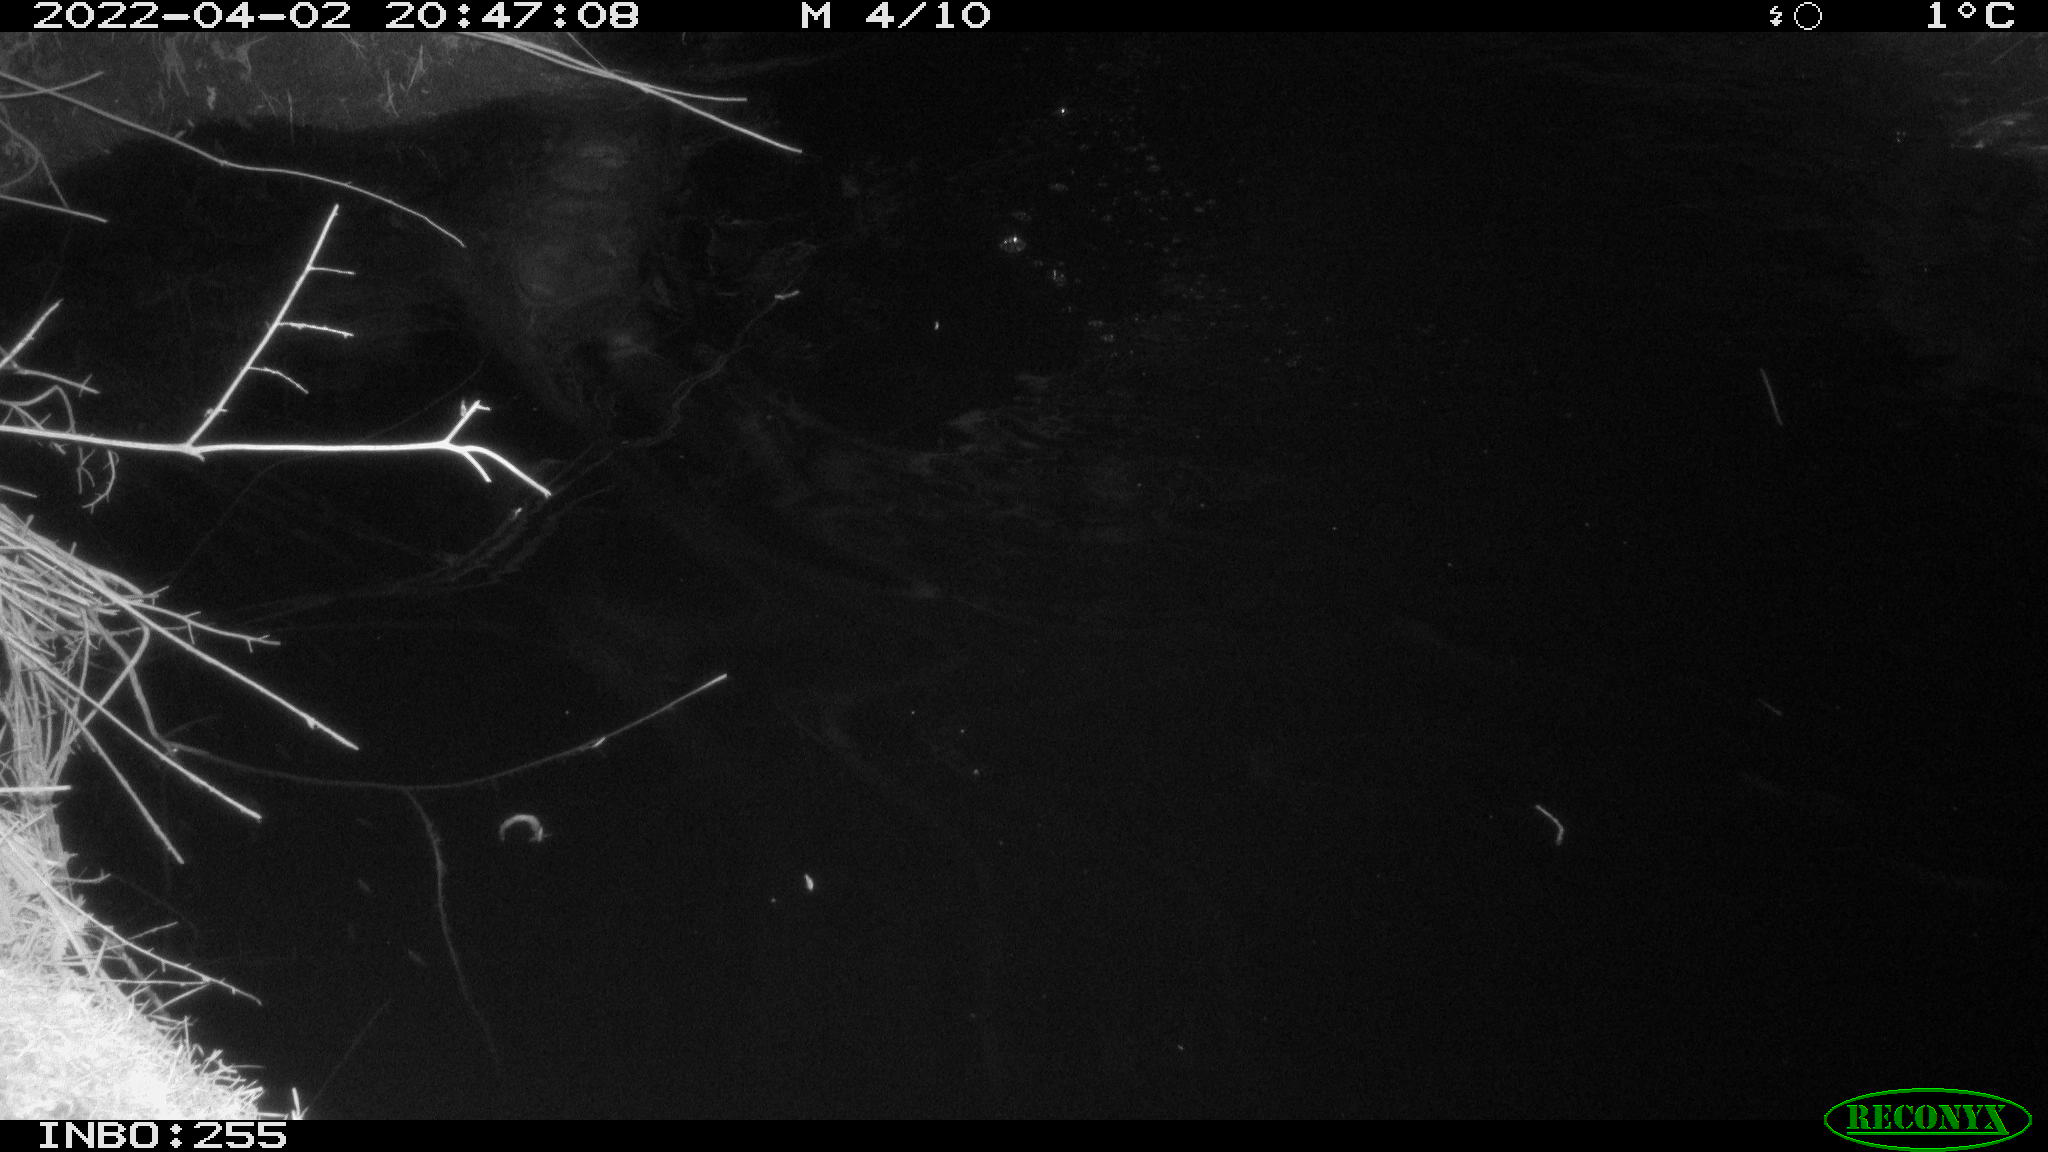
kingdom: Animalia
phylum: Chordata
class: Aves
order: Anseriformes
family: Anatidae
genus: Anas
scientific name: Anas platyrhynchos
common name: Mallard
